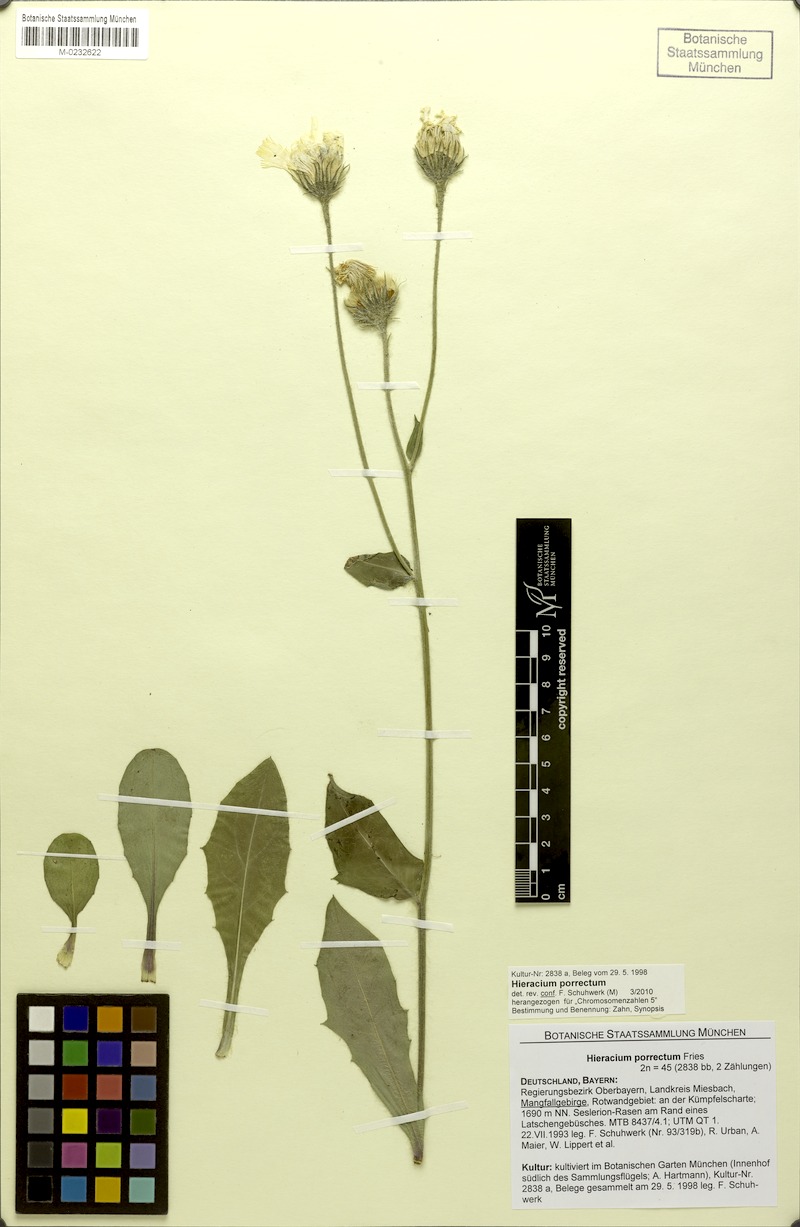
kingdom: Plantae
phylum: Tracheophyta
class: Magnoliopsida
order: Asterales
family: Asteraceae
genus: Hieracium
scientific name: Hieracium porrectum
